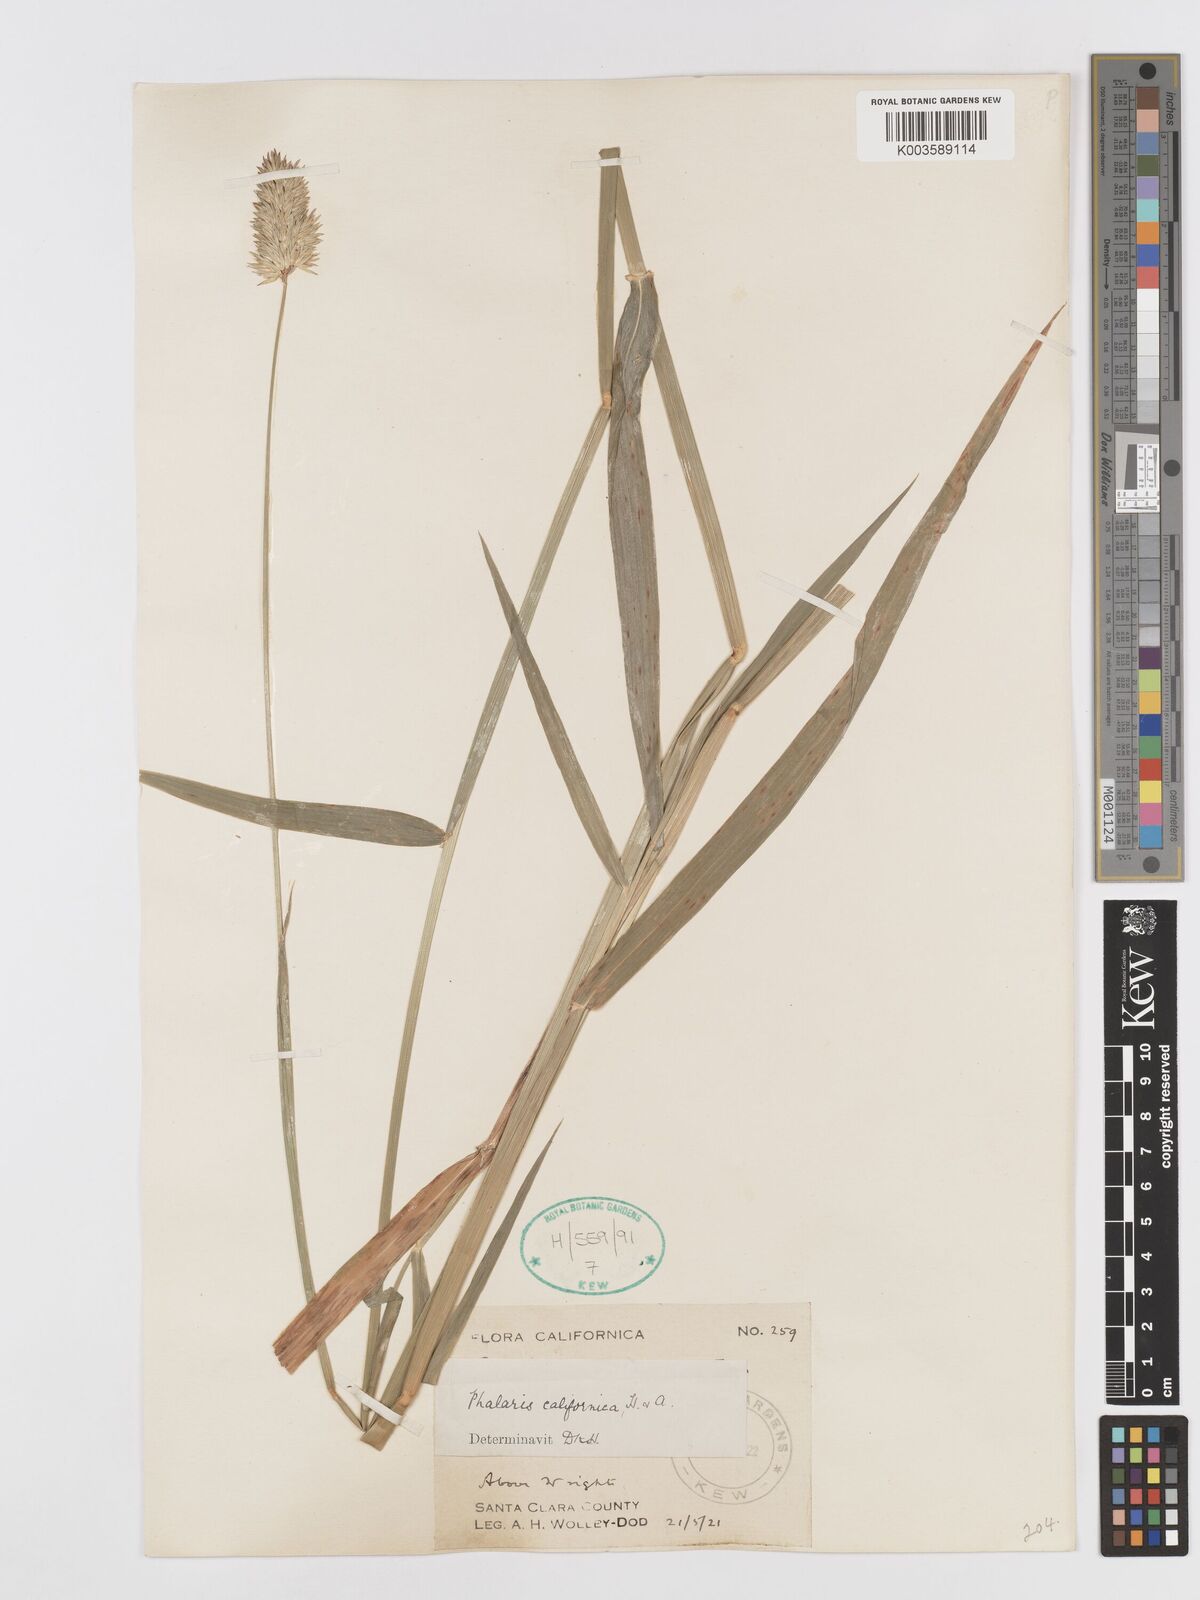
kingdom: Plantae
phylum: Tracheophyta
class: Liliopsida
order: Poales
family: Poaceae
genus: Phalaris
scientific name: Phalaris californica
